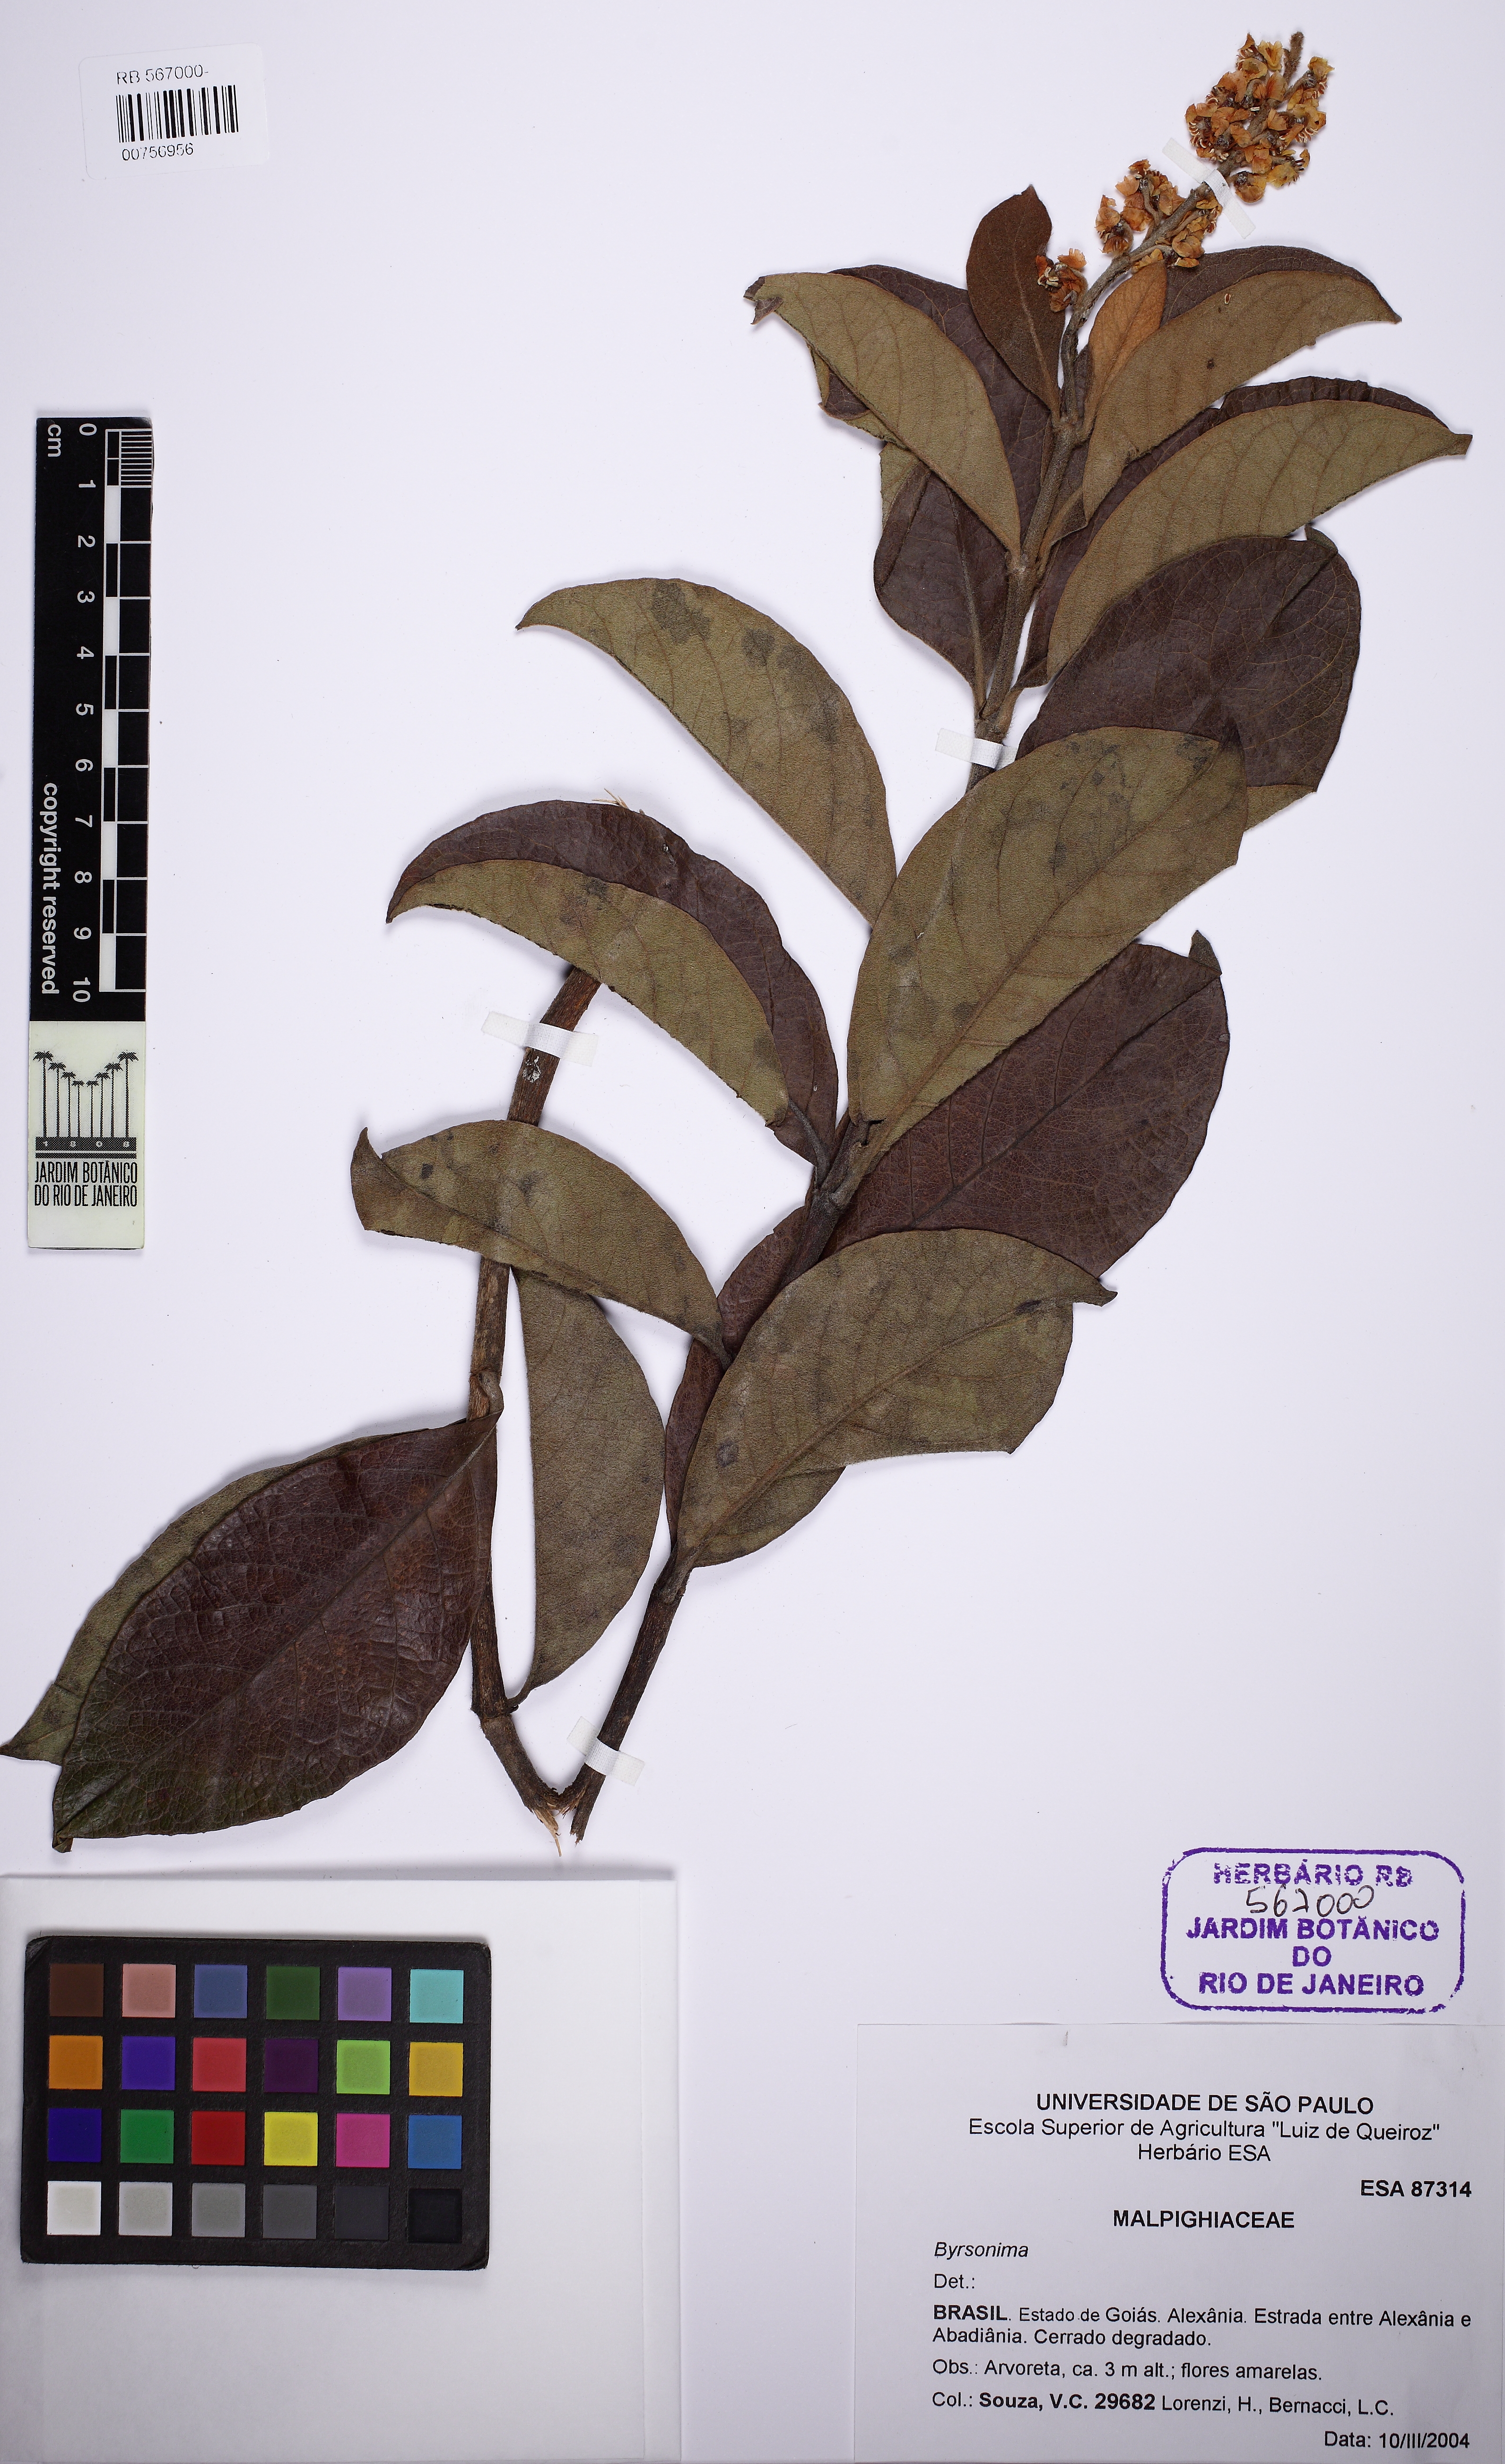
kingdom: Plantae
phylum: Tracheophyta
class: Magnoliopsida
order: Malpighiales
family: Malpighiaceae
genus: Byrsonima
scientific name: Byrsonima
